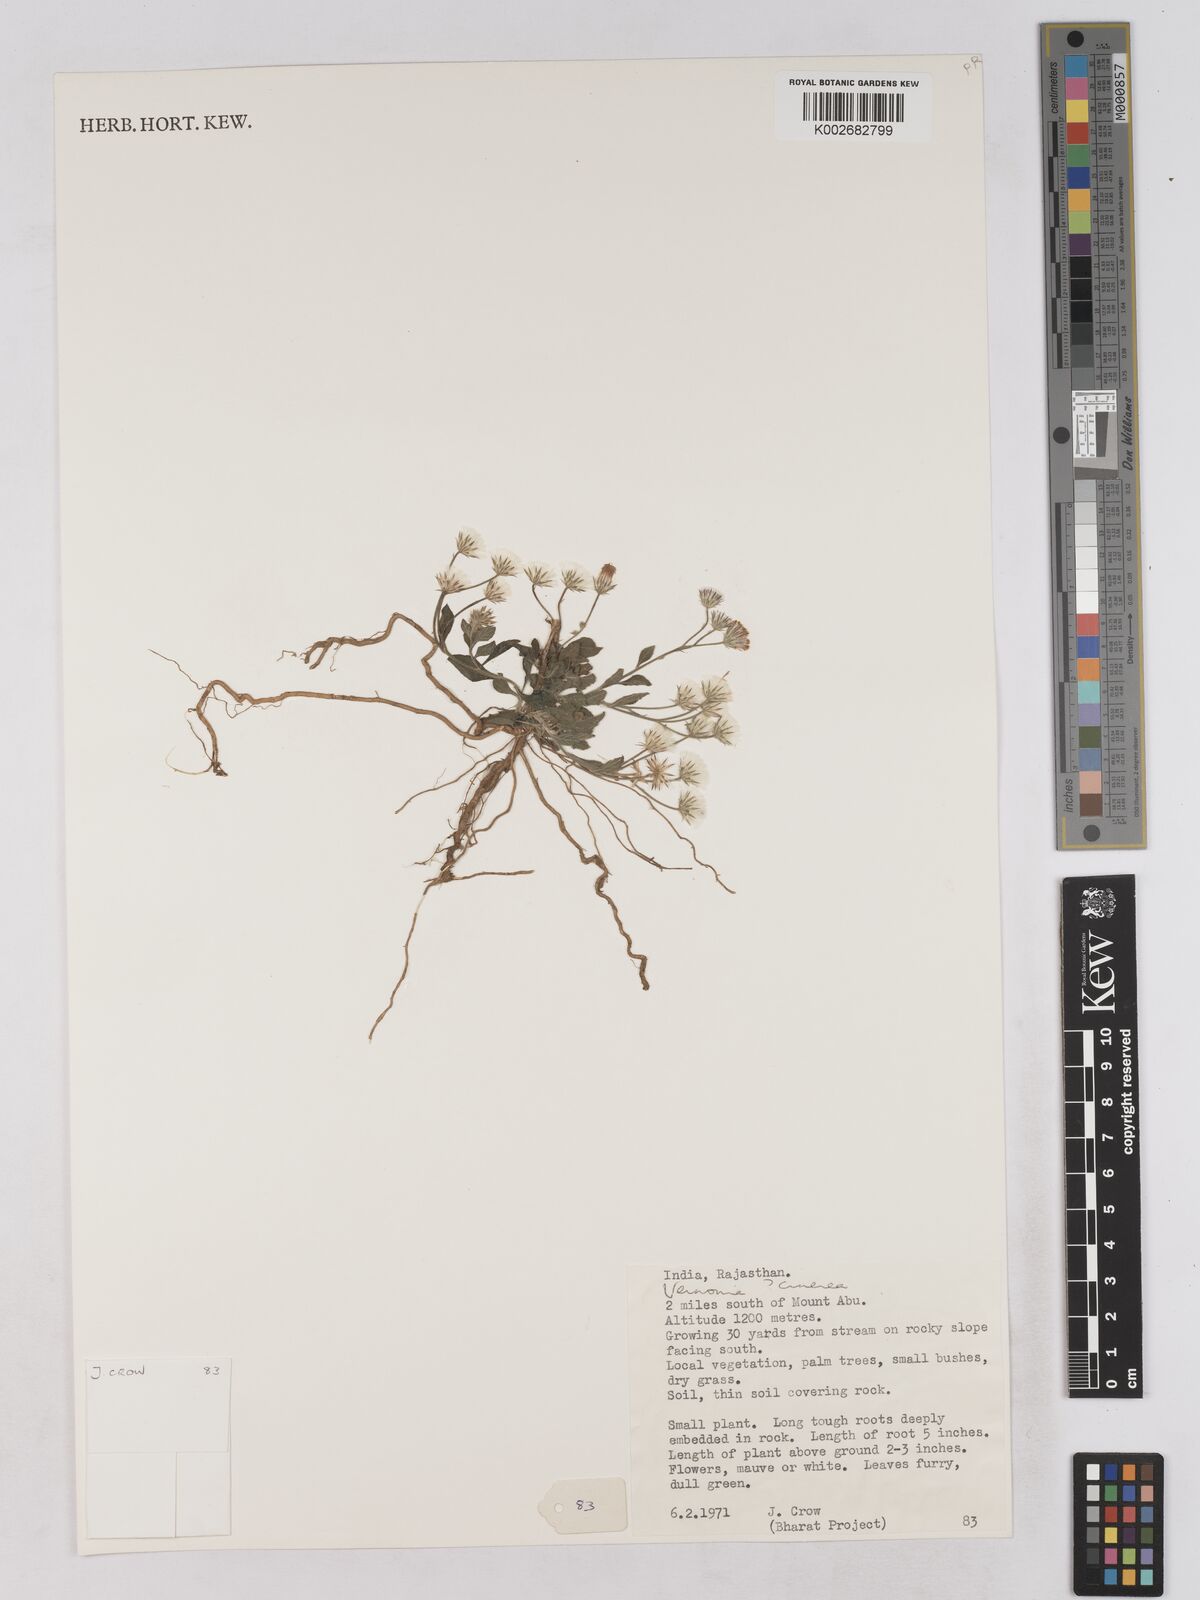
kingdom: Plantae
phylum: Tracheophyta
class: Magnoliopsida
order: Asterales
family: Asteraceae
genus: Cyanthillium
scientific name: Cyanthillium cinereum
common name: Little ironweed
